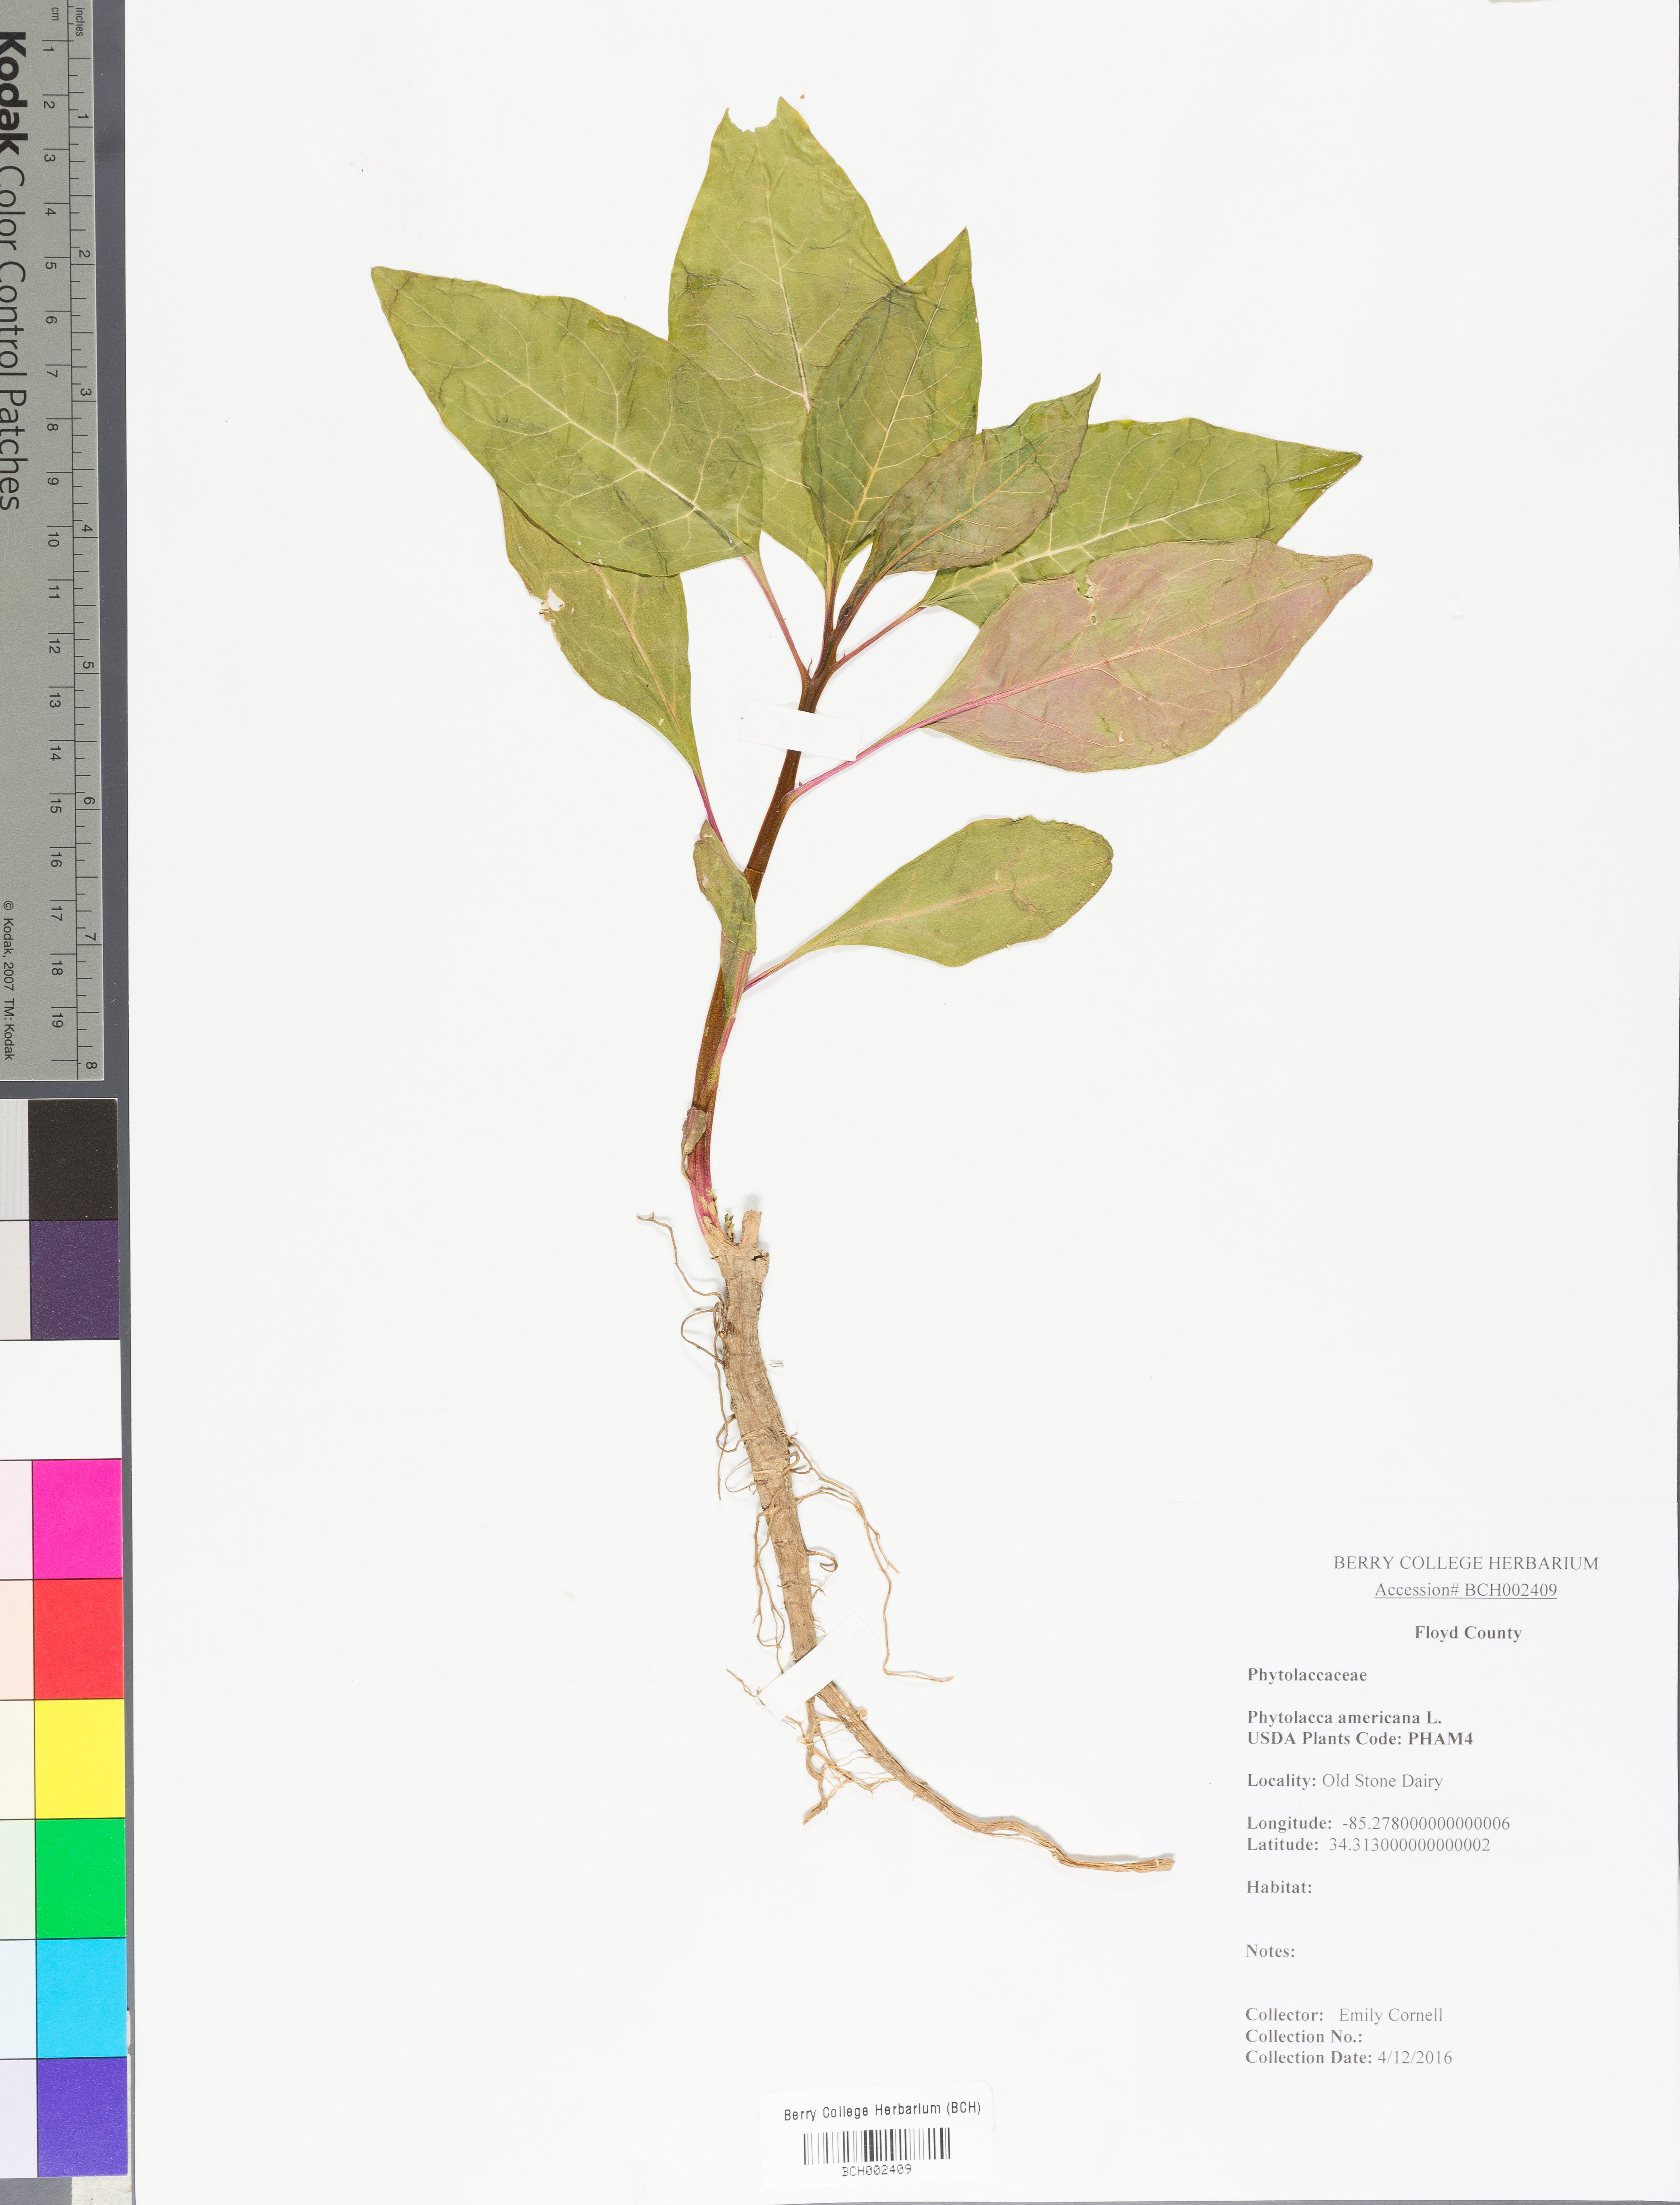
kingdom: Plantae
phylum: Tracheophyta
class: Magnoliopsida
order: Caryophyllales
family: Phytolaccaceae
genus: Phytolacca
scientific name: Phytolacca americana
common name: American pokeweed
